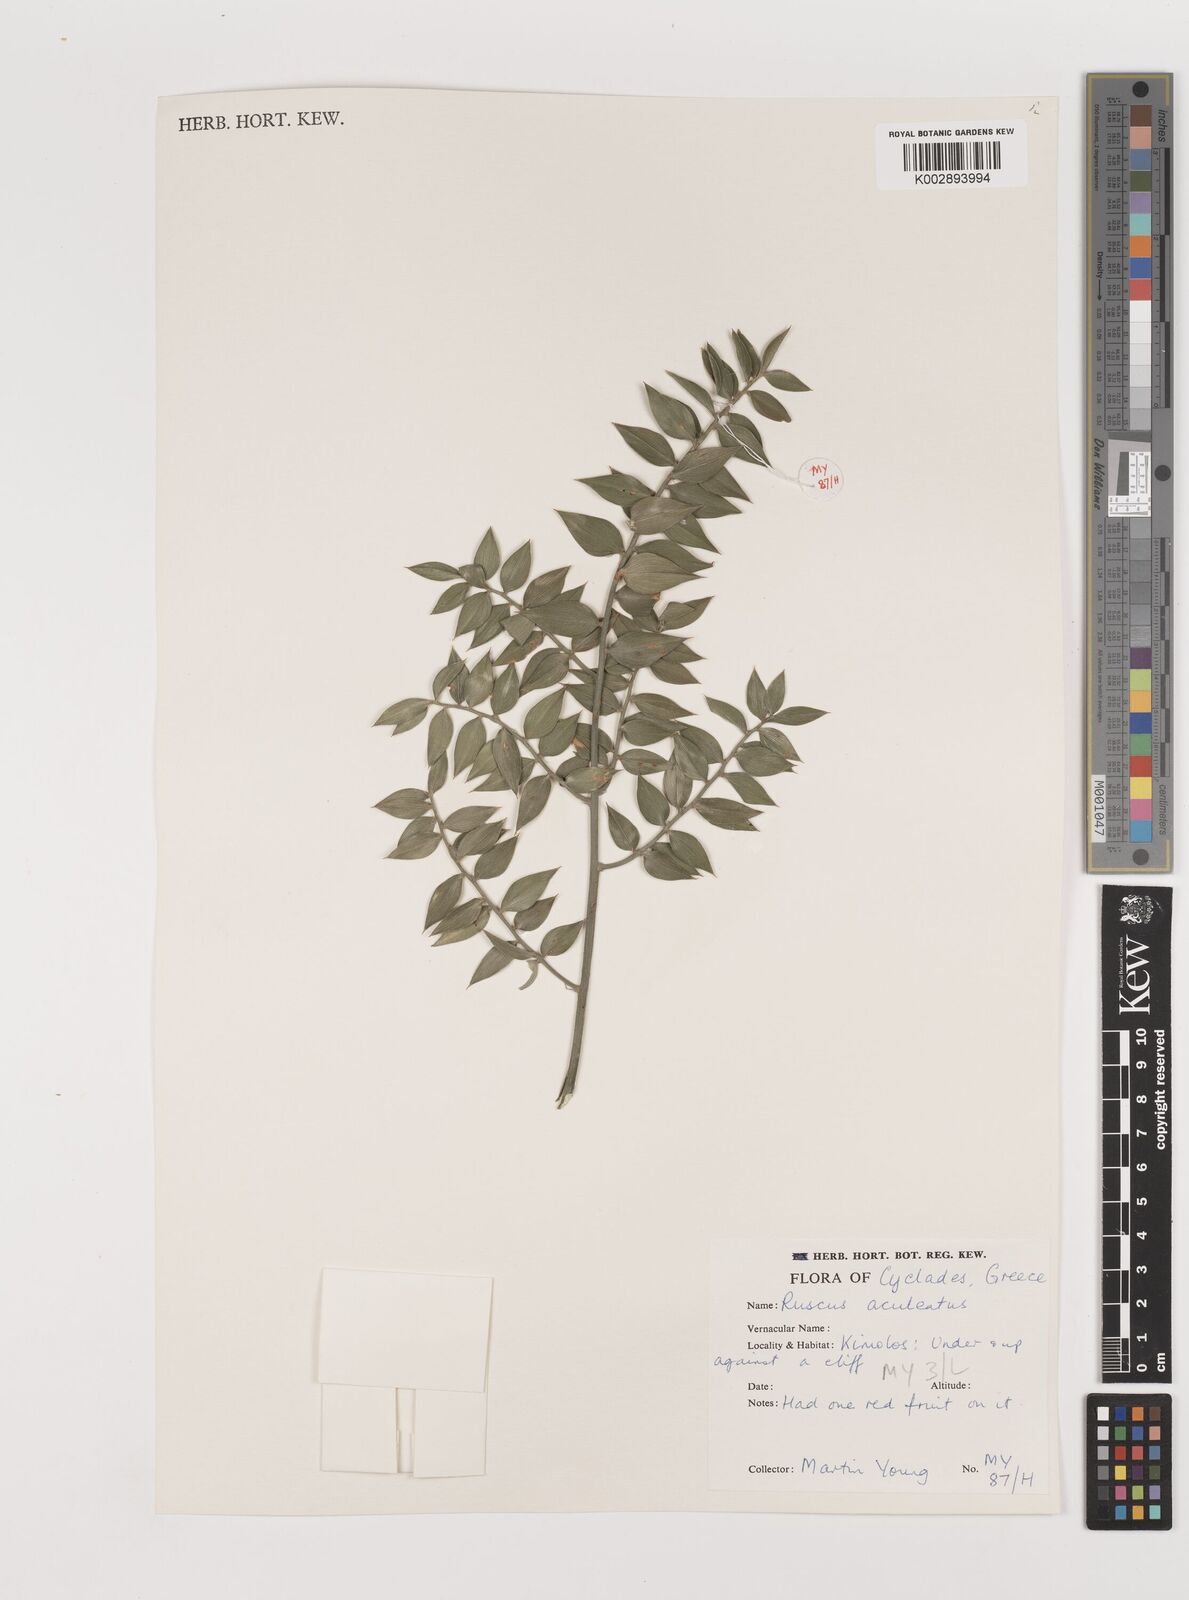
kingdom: Plantae
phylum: Tracheophyta
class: Liliopsida
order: Asparagales
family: Asparagaceae
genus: Ruscus
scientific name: Ruscus aculeatus
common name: Butcher's-broom
